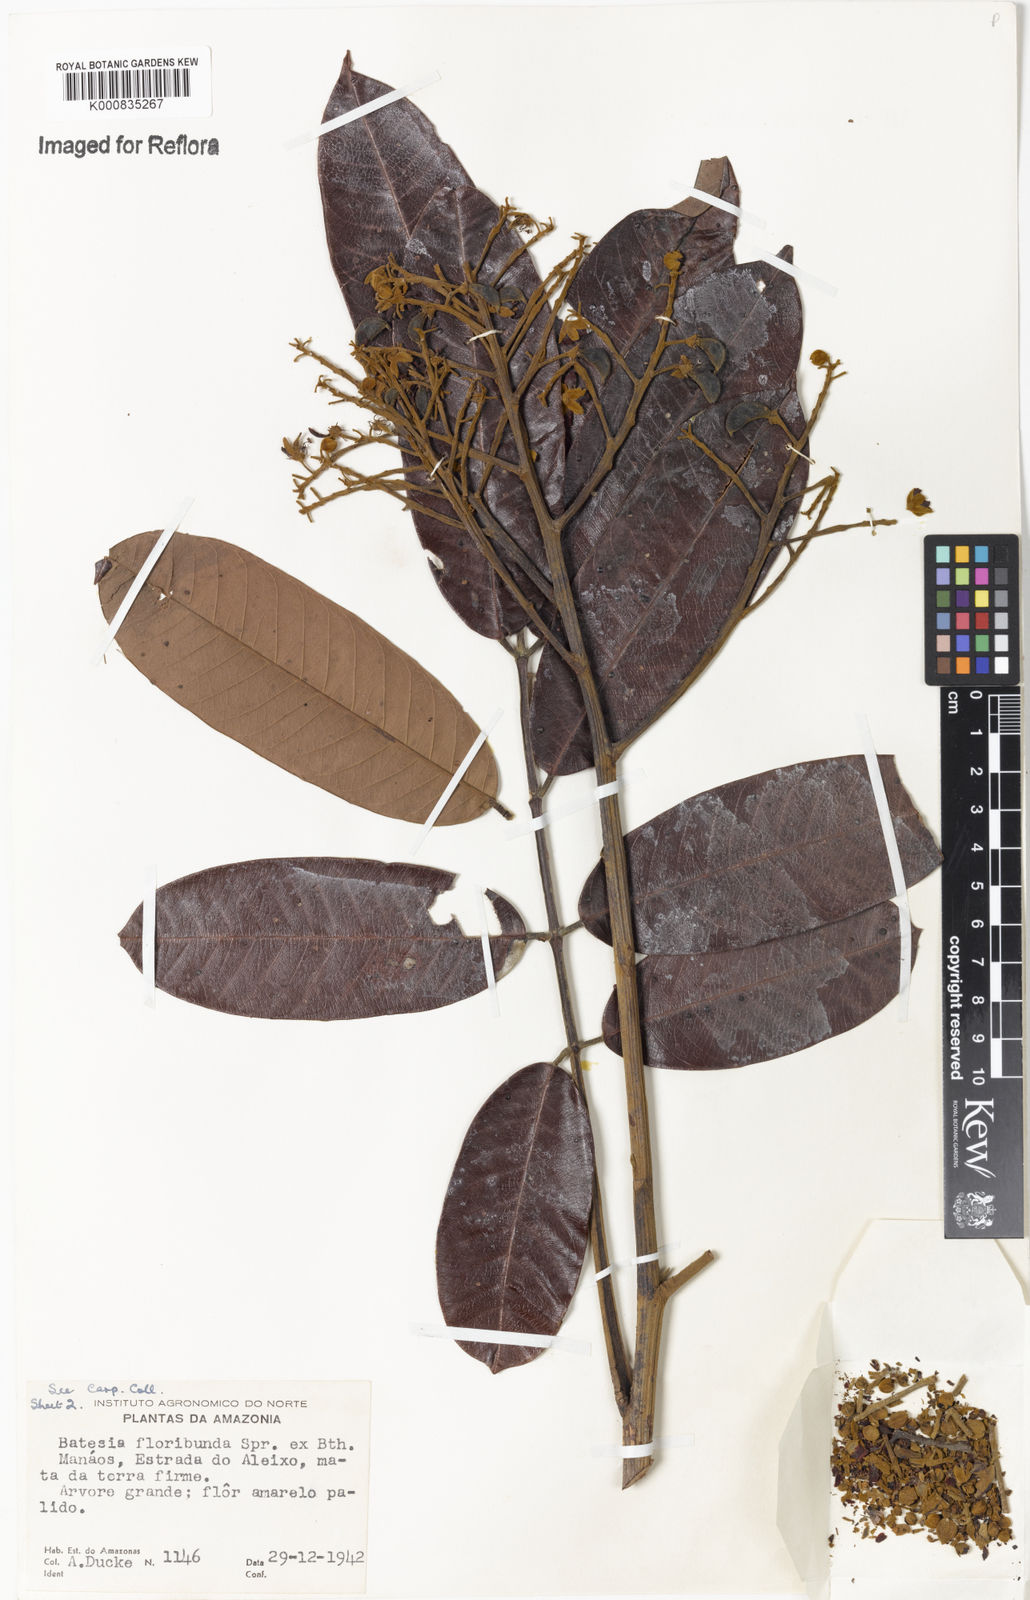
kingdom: Plantae
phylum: Tracheophyta
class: Magnoliopsida
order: Fabales
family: Fabaceae
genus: Batesia
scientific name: Batesia floribunda
